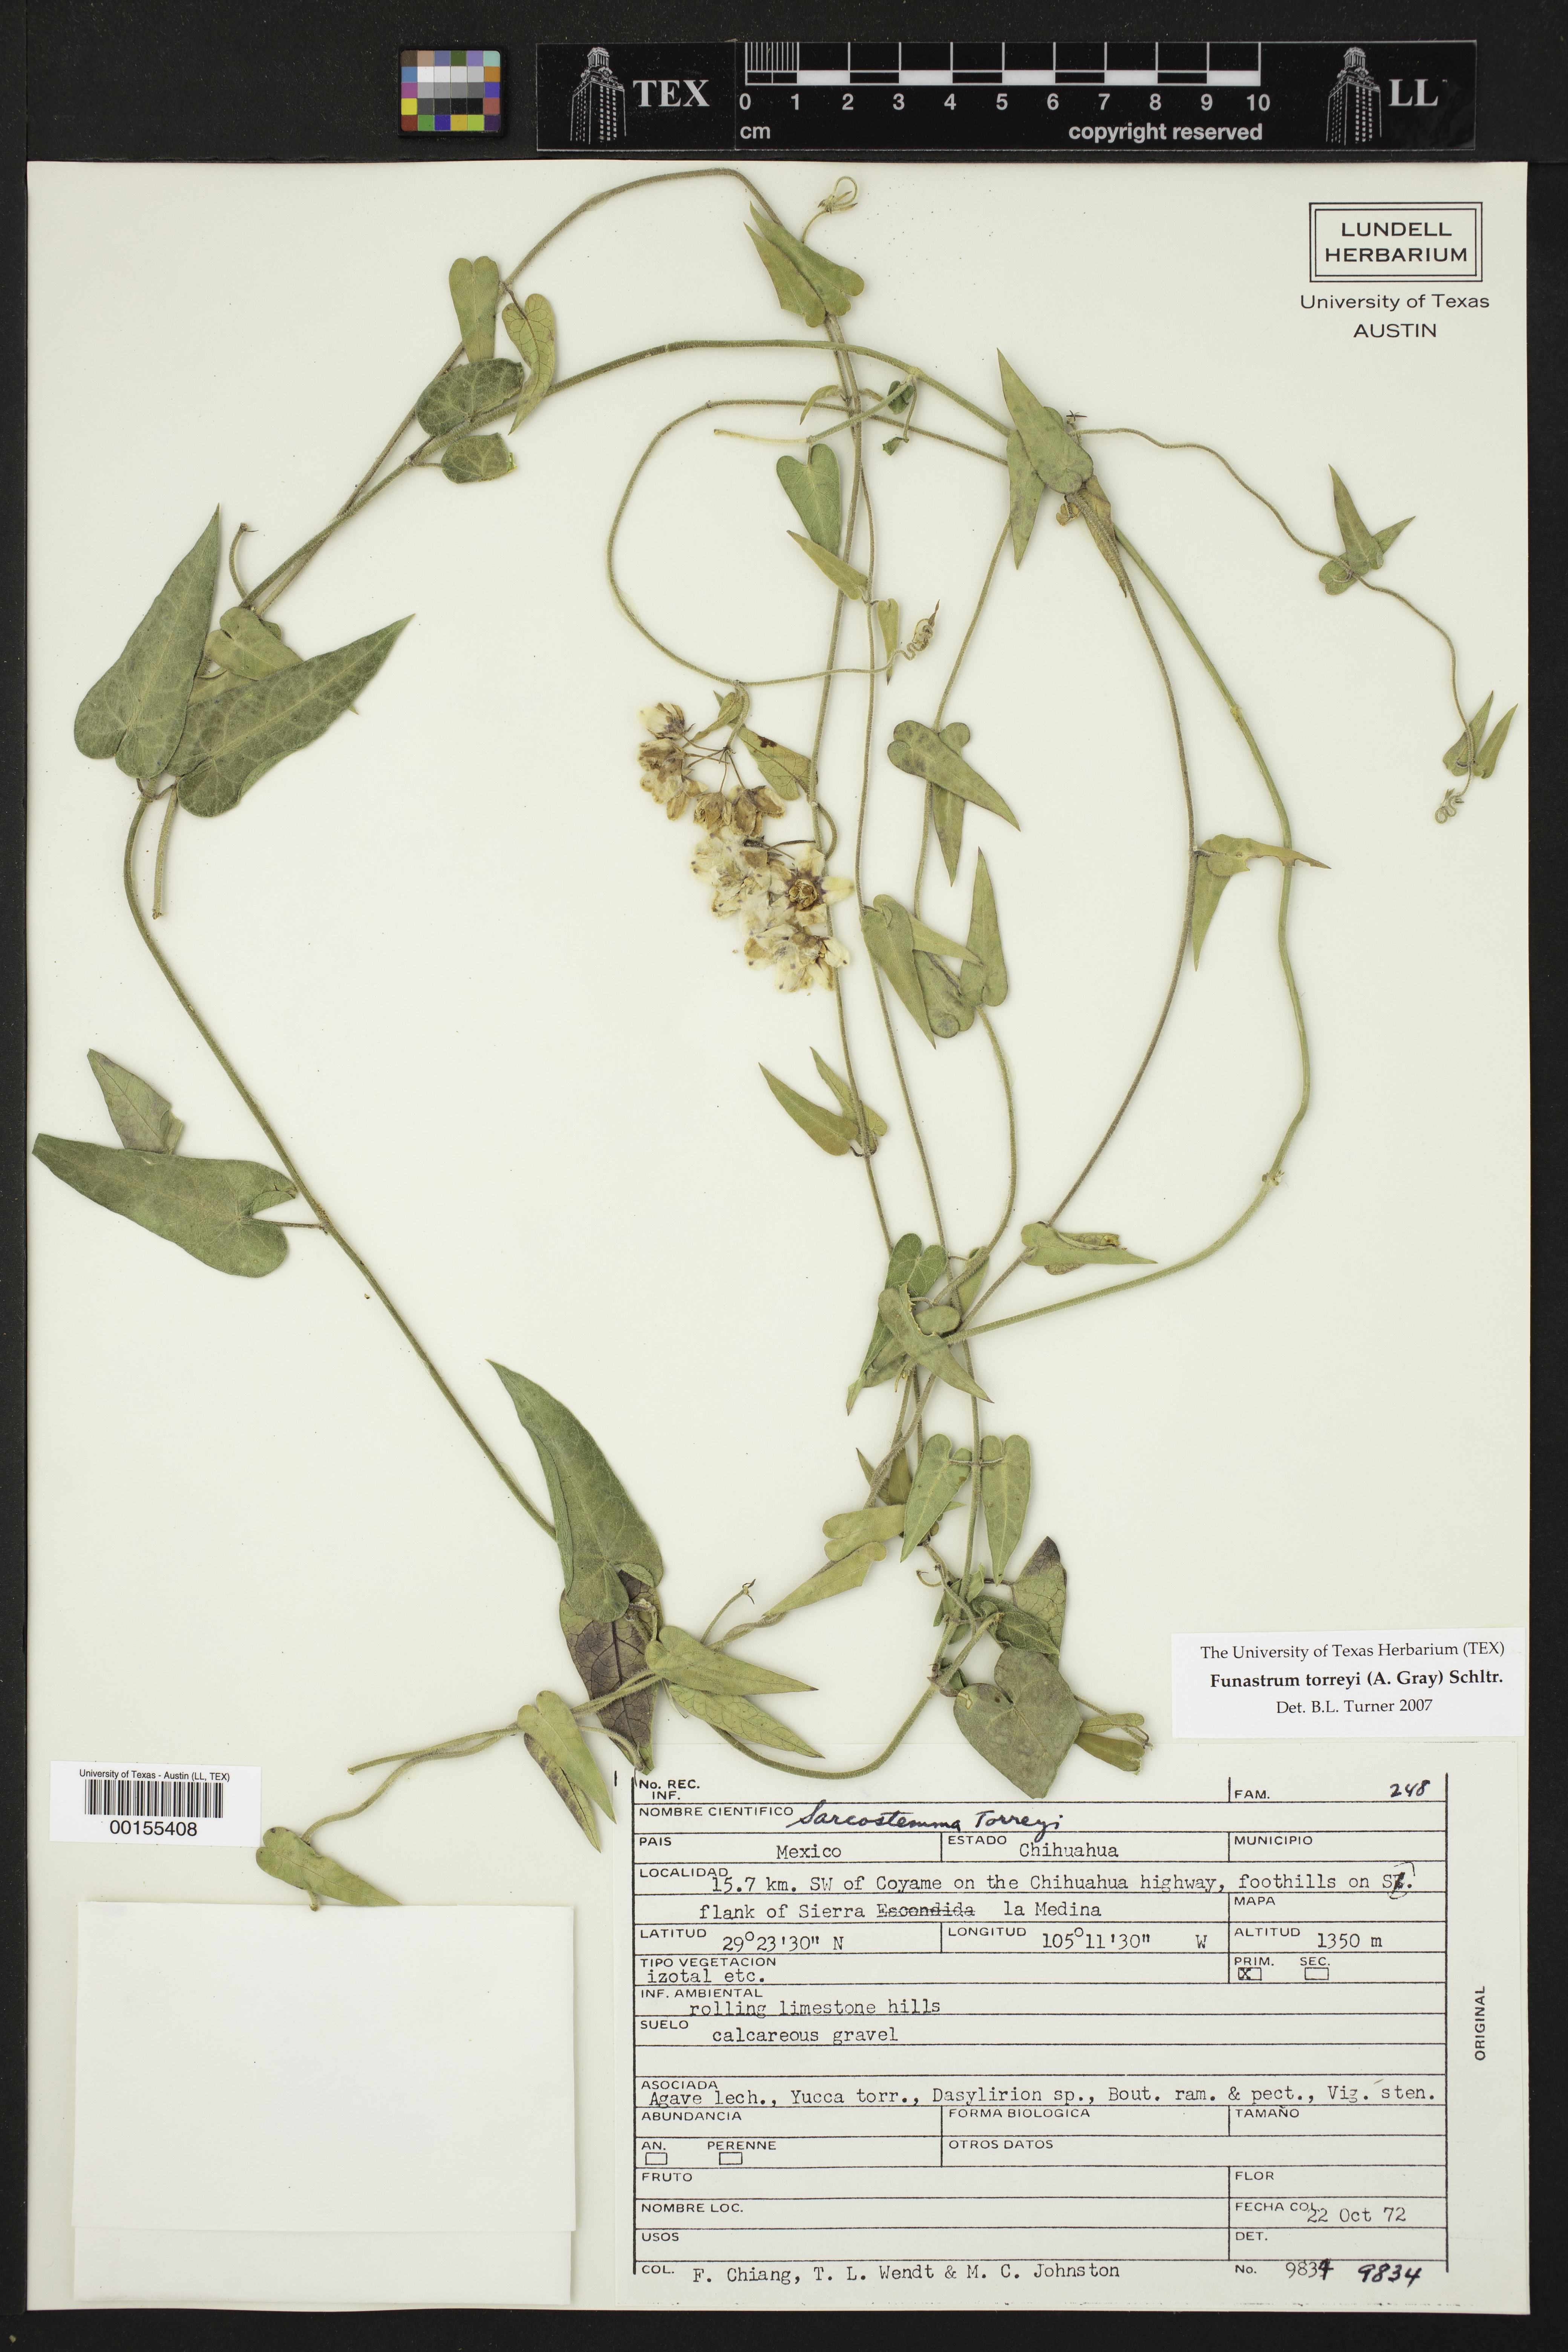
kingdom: Plantae
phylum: Tracheophyta
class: Magnoliopsida
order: Gentianales
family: Apocynaceae
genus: Funastrum
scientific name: Funastrum torreyi
